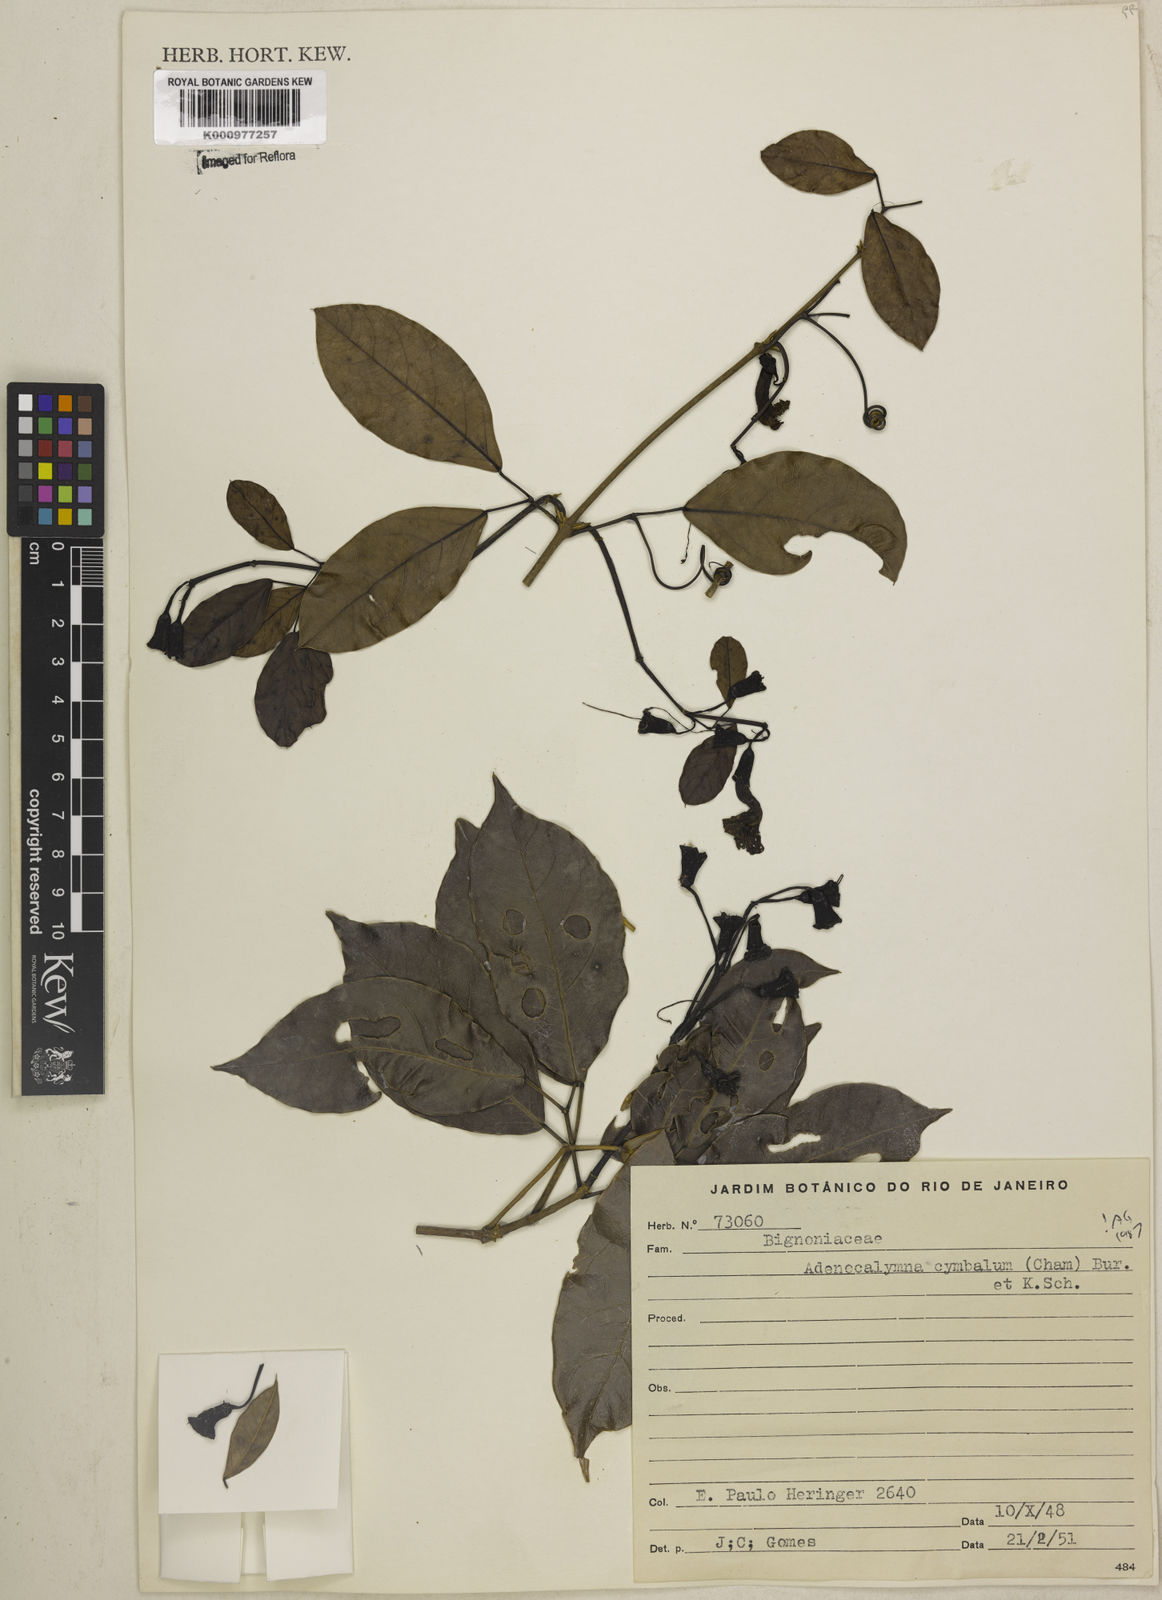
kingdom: Plantae
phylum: Tracheophyta
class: Magnoliopsida
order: Lamiales
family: Bignoniaceae
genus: Adenocalymma
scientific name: Adenocalymma cymbalum
